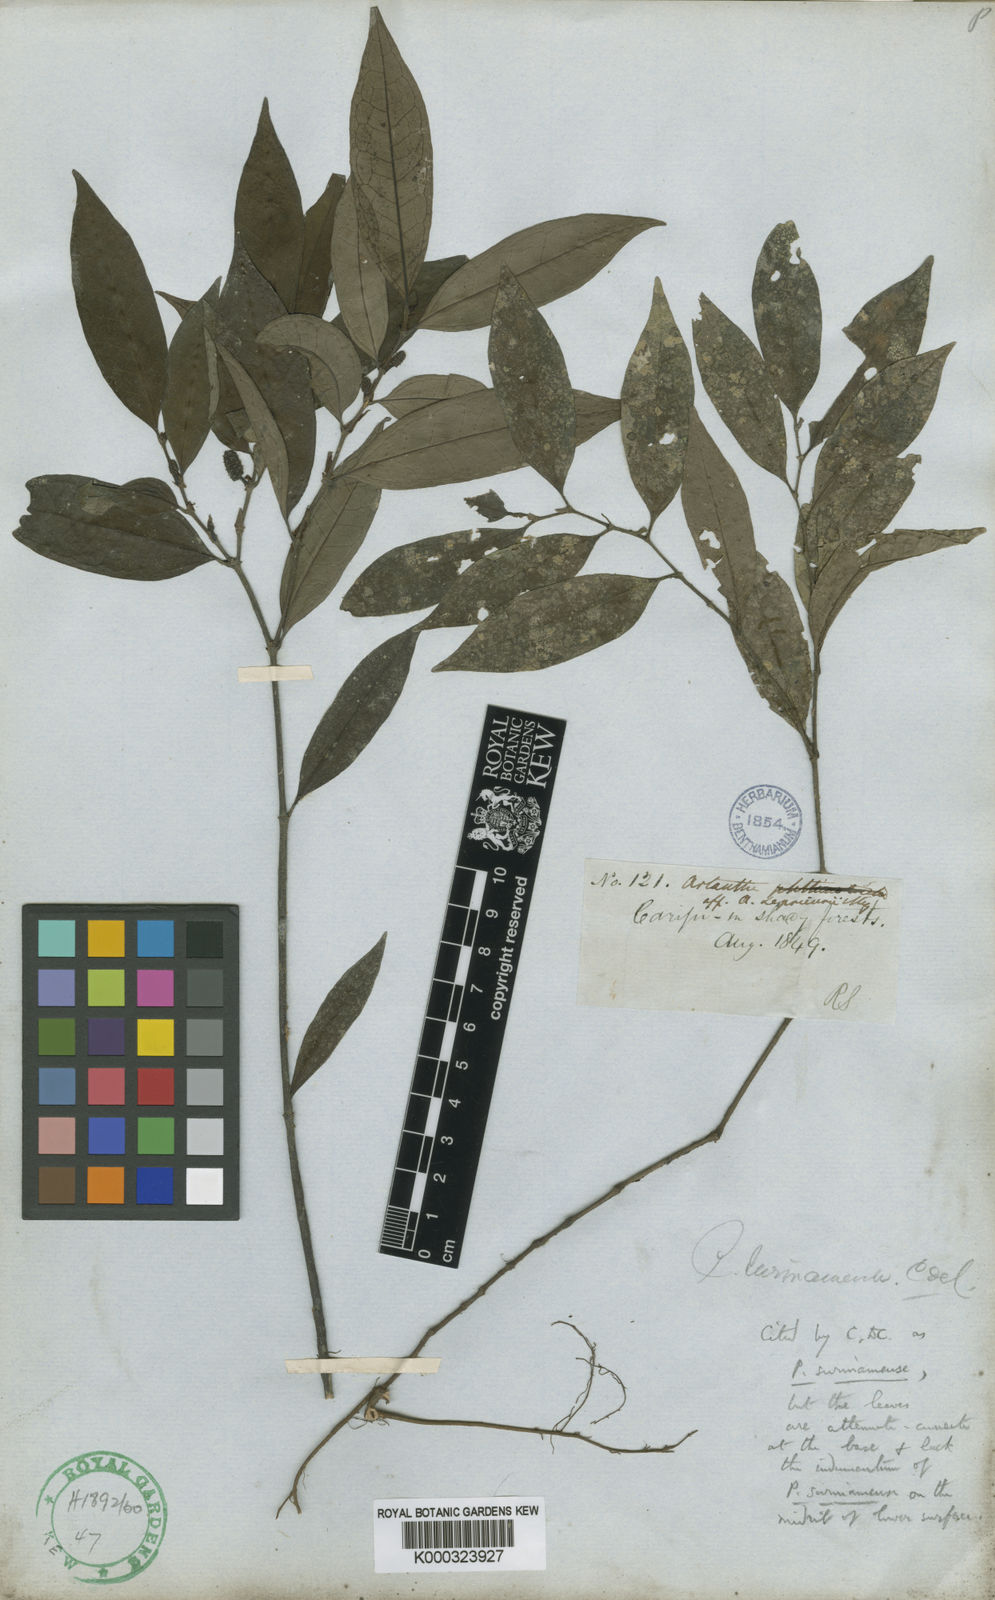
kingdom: Plantae
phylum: Tracheophyta
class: Magnoliopsida
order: Piperales
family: Piperaceae
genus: Piper
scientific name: Piper consanguineum
